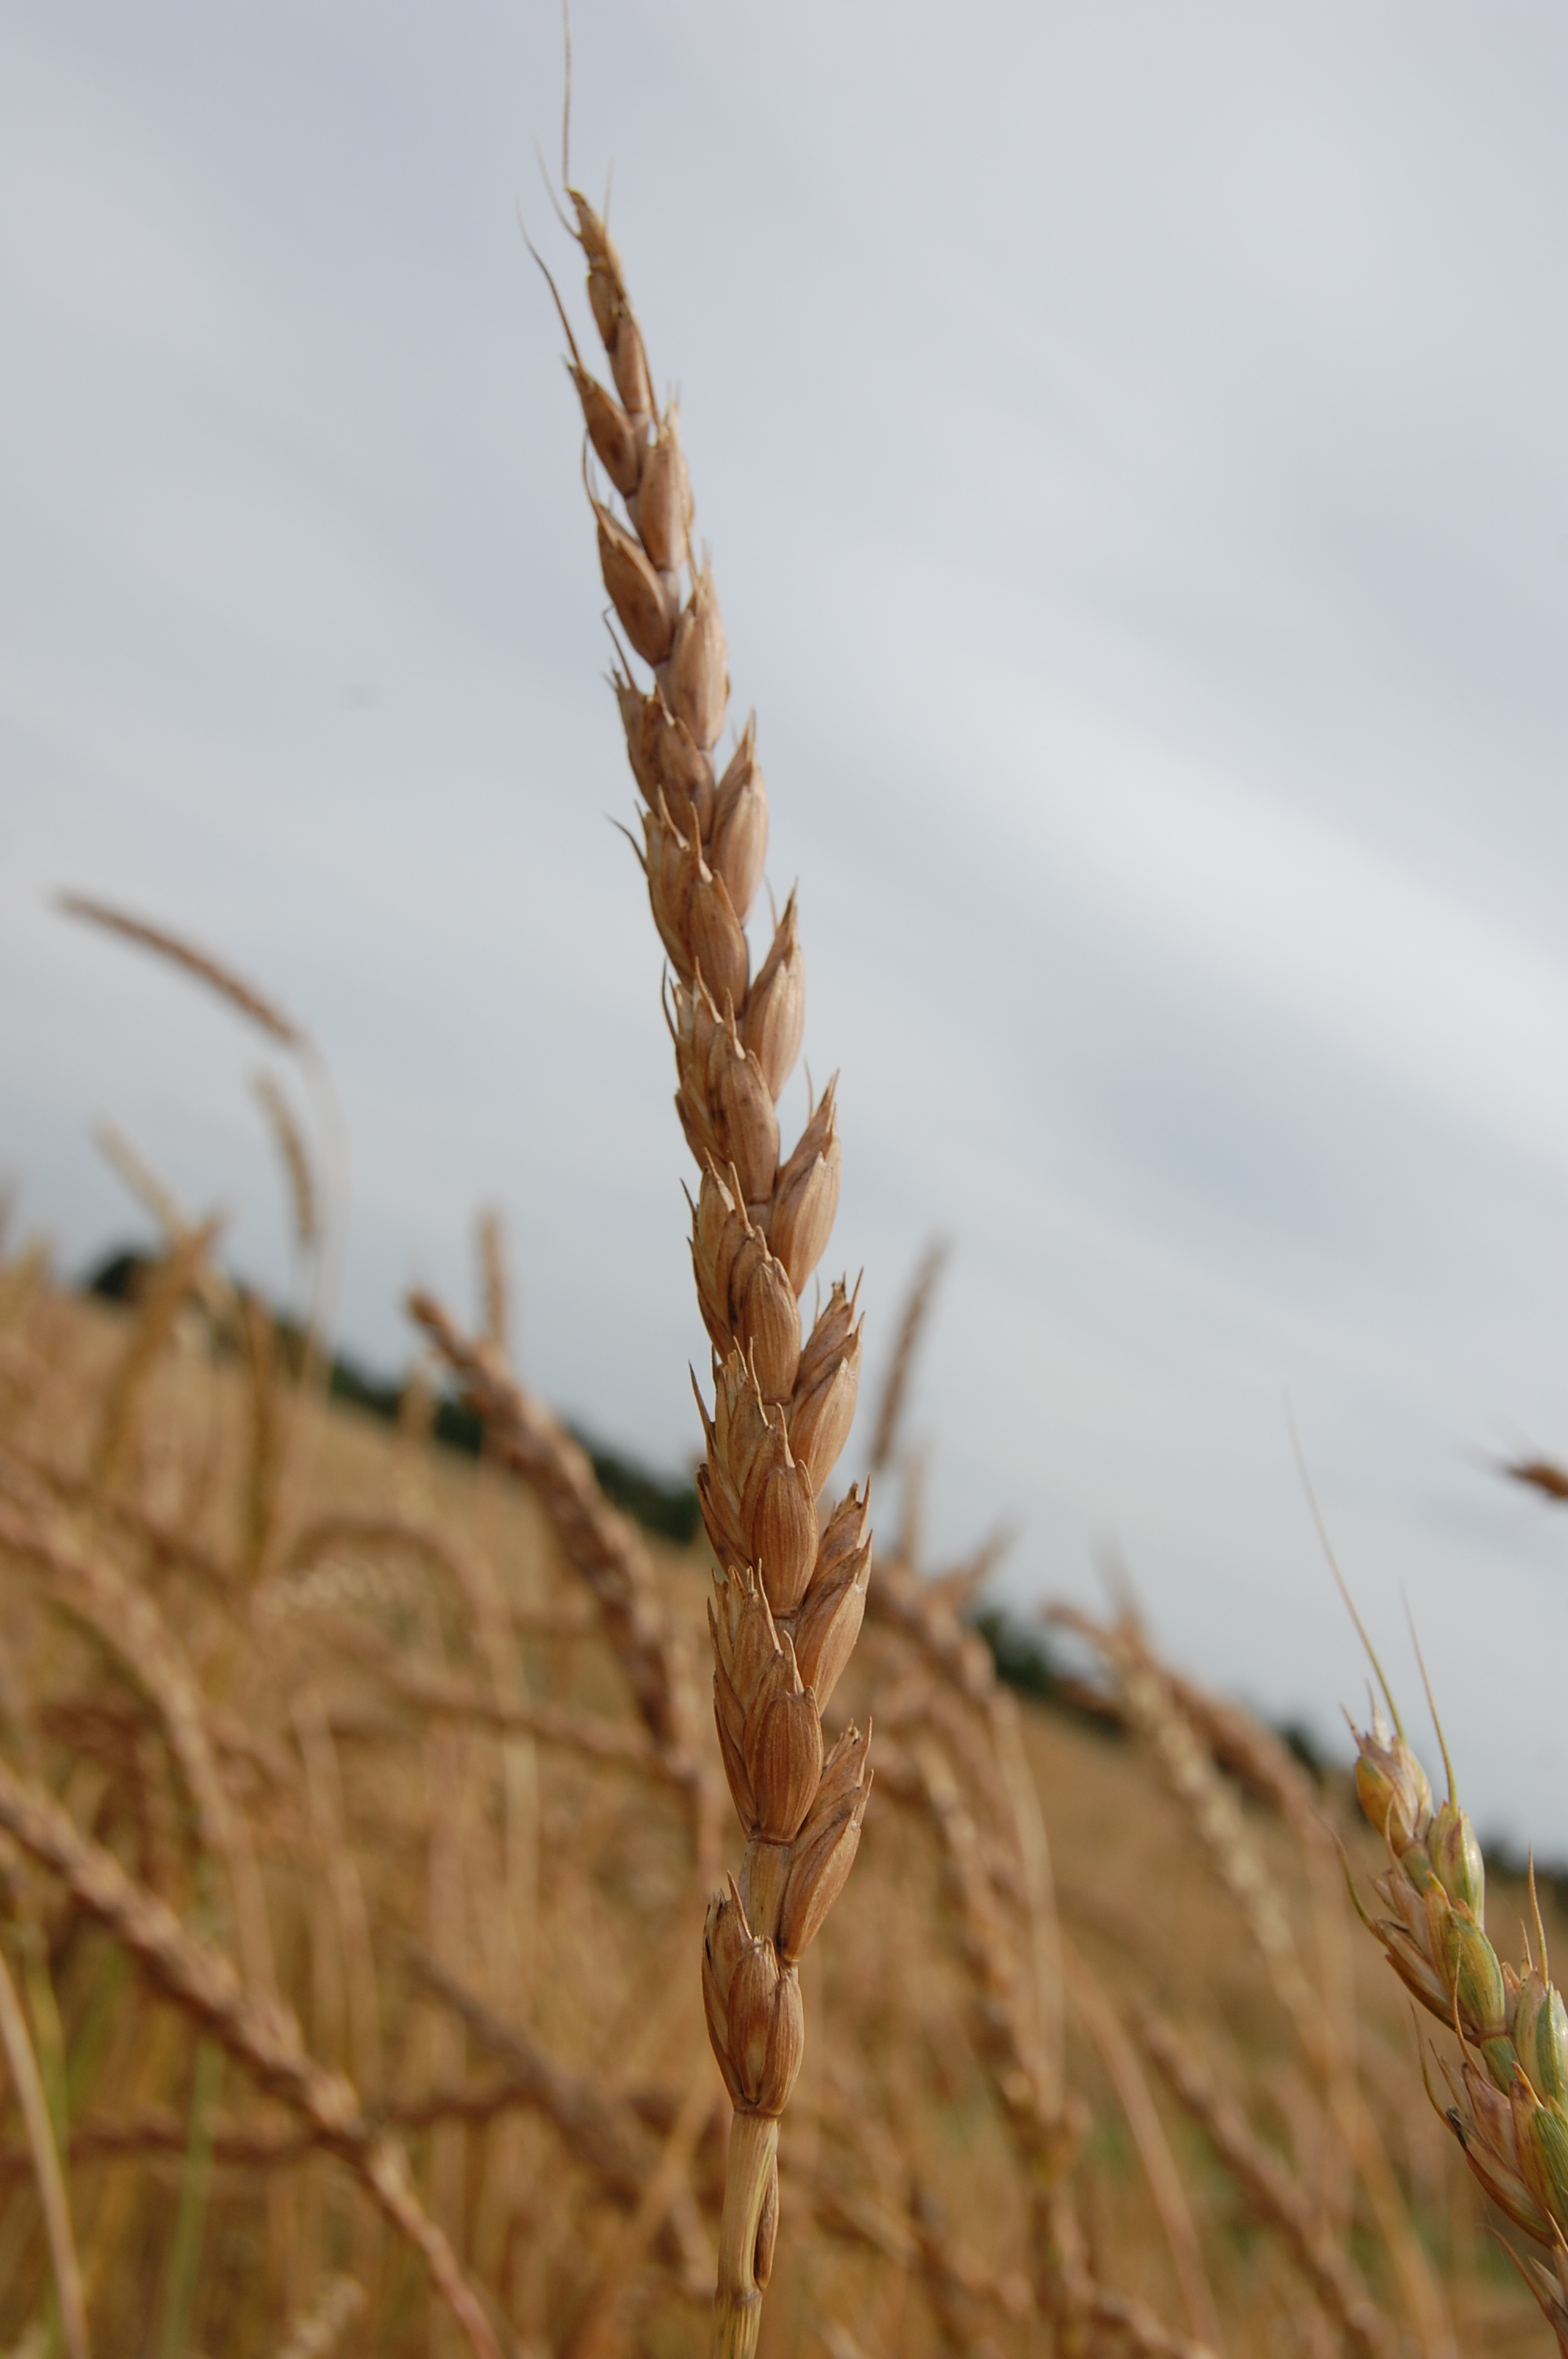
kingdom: Plantae
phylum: Tracheophyta
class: Liliopsida
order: Poales
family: Poaceae
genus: Triticum
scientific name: Triticum aestivum
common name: Common wheat
